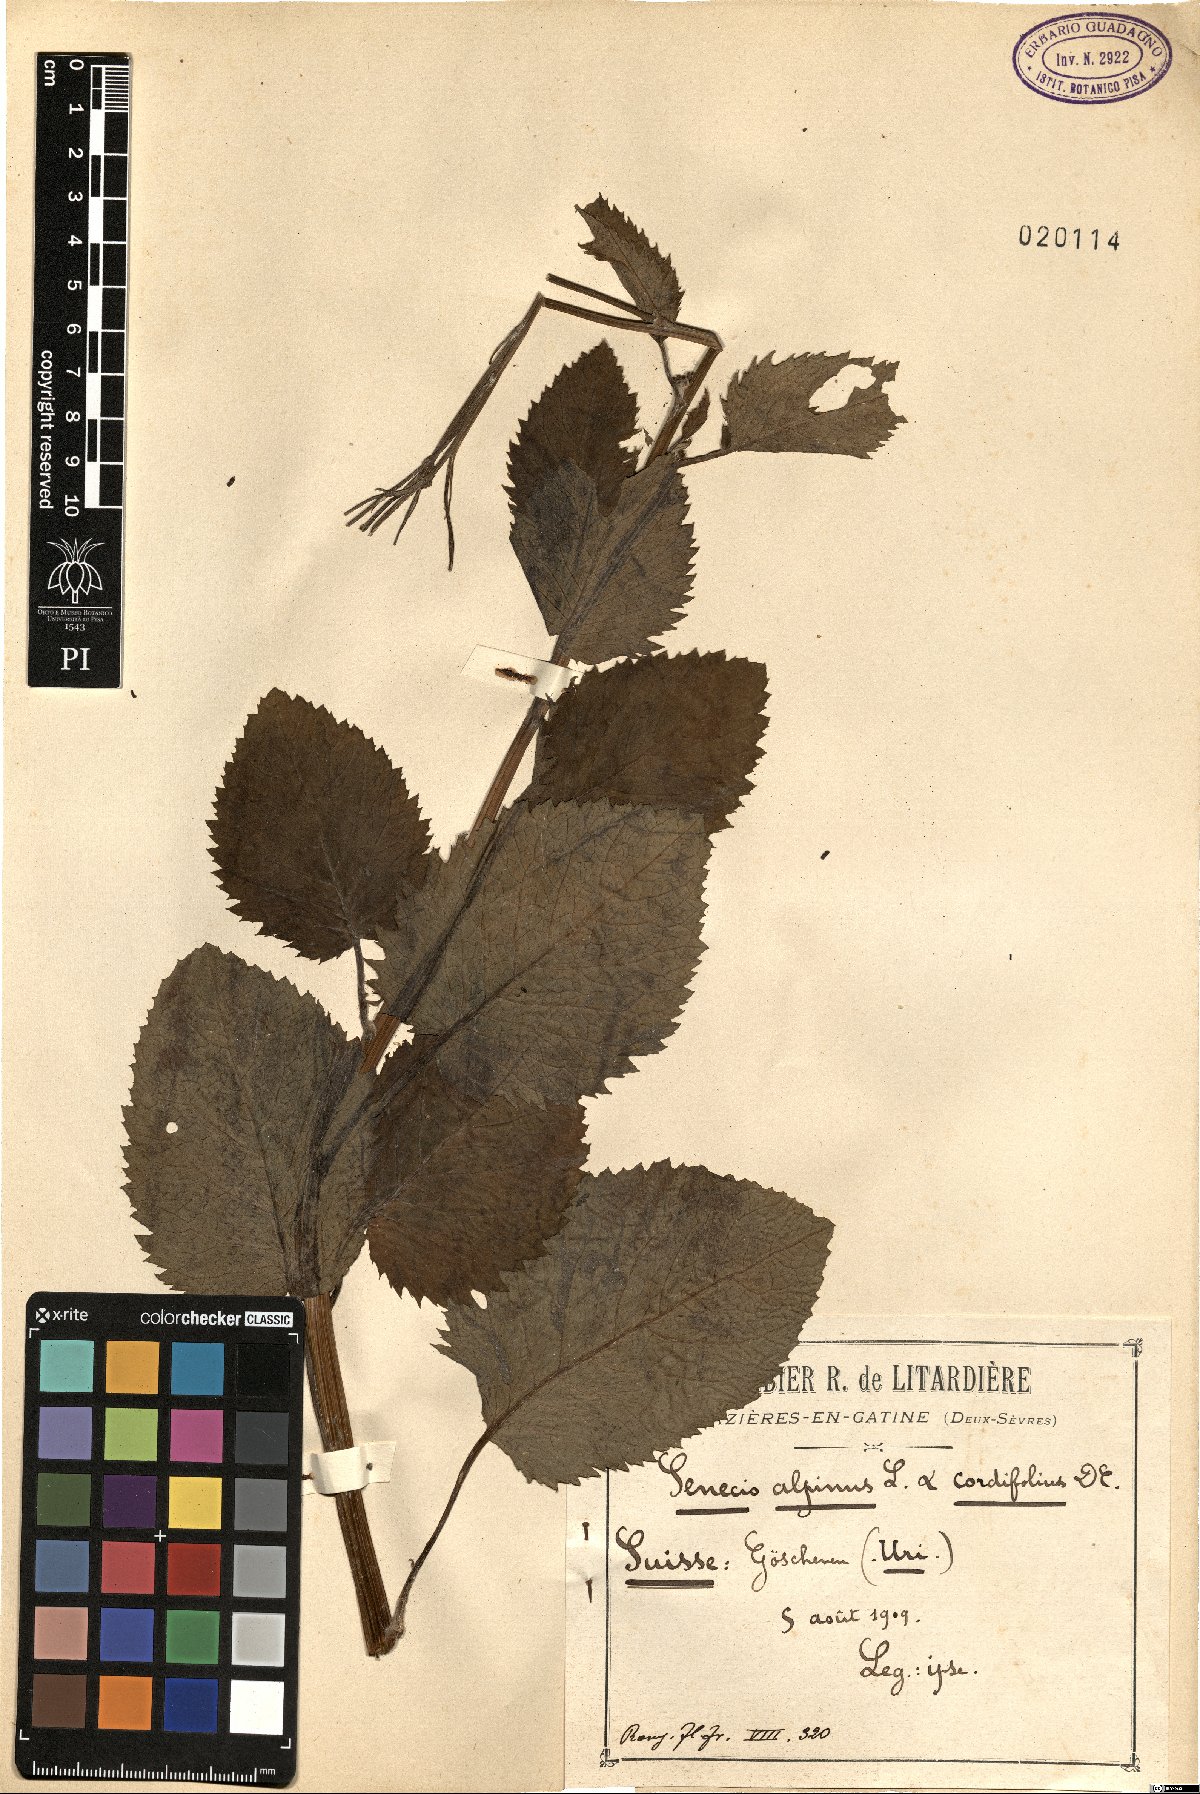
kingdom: Plantae
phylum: Tracheophyta
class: Magnoliopsida
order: Asterales
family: Asteraceae
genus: Jacobaea
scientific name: Jacobaea alpina
